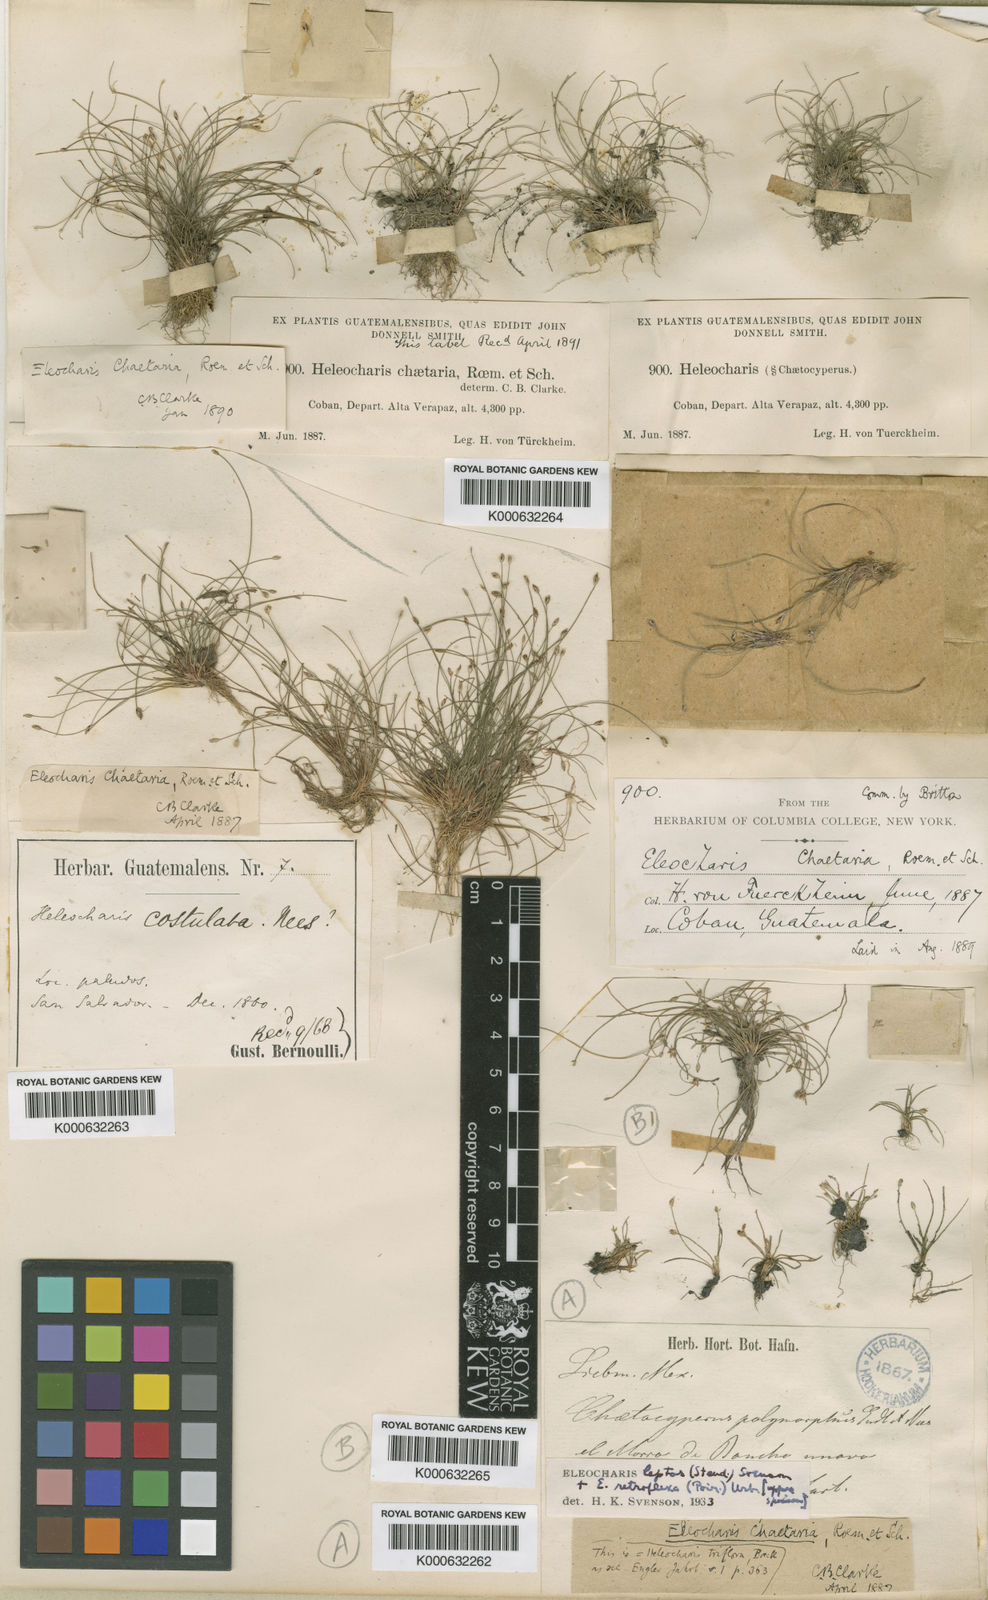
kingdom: Plantae
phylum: Tracheophyta
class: Liliopsida
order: Poales
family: Cyperaceae
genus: Eleocharis
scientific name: Eleocharis retroflexa
